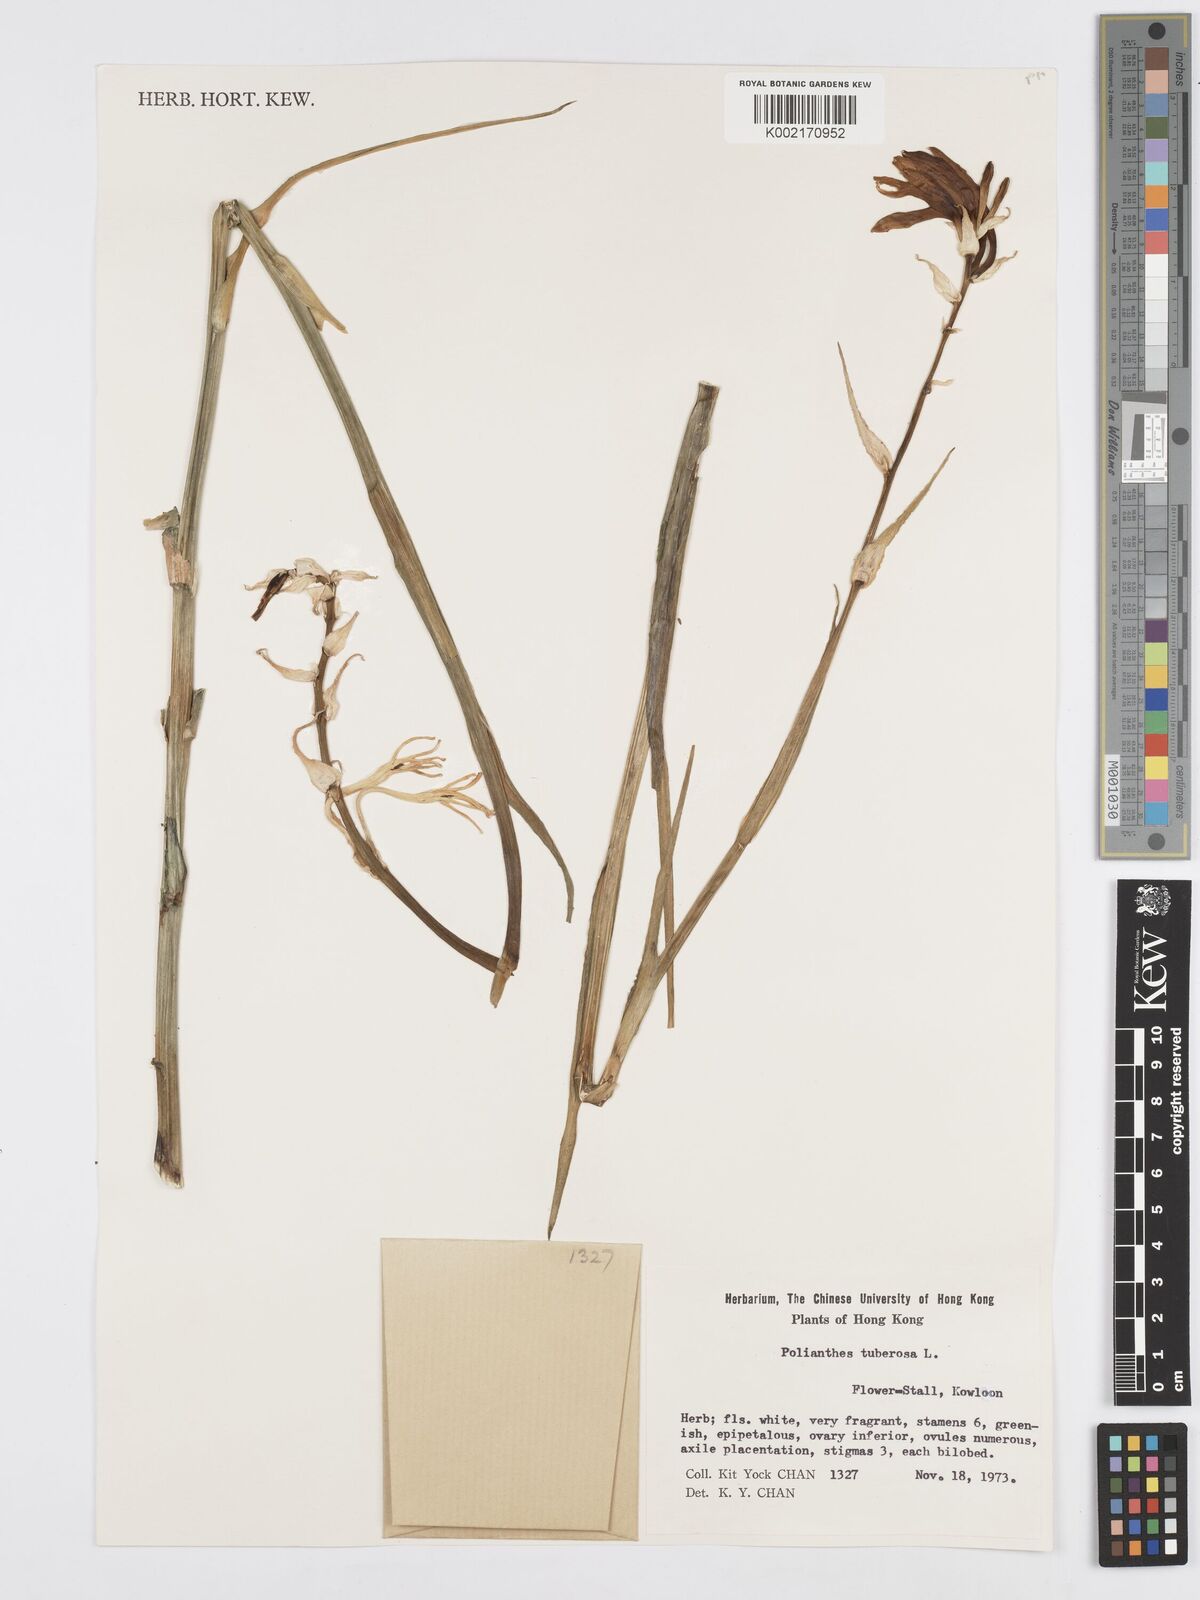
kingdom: Plantae
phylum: Tracheophyta
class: Liliopsida
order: Asparagales
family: Asparagaceae
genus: Agave
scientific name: Agave amica
